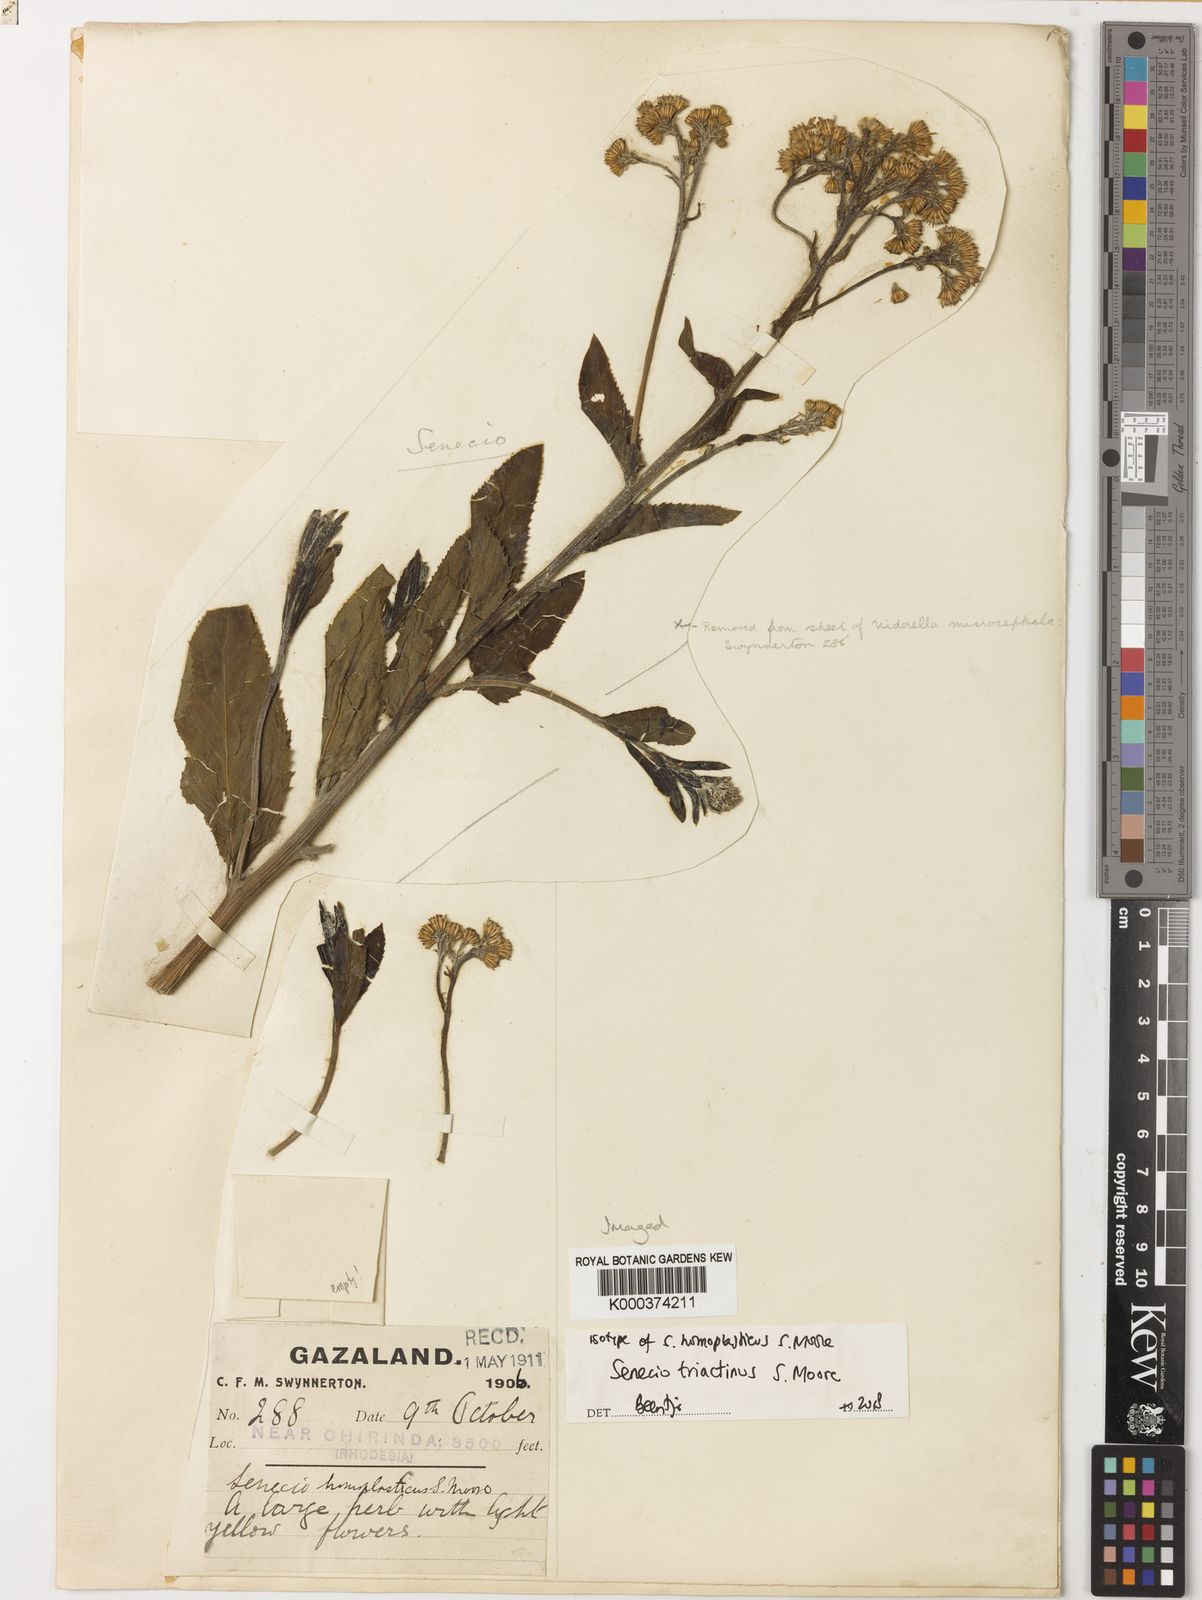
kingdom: Plantae
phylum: Tracheophyta
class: Magnoliopsida
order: Asterales
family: Asteraceae
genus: Senecio
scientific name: Senecio triactinus
